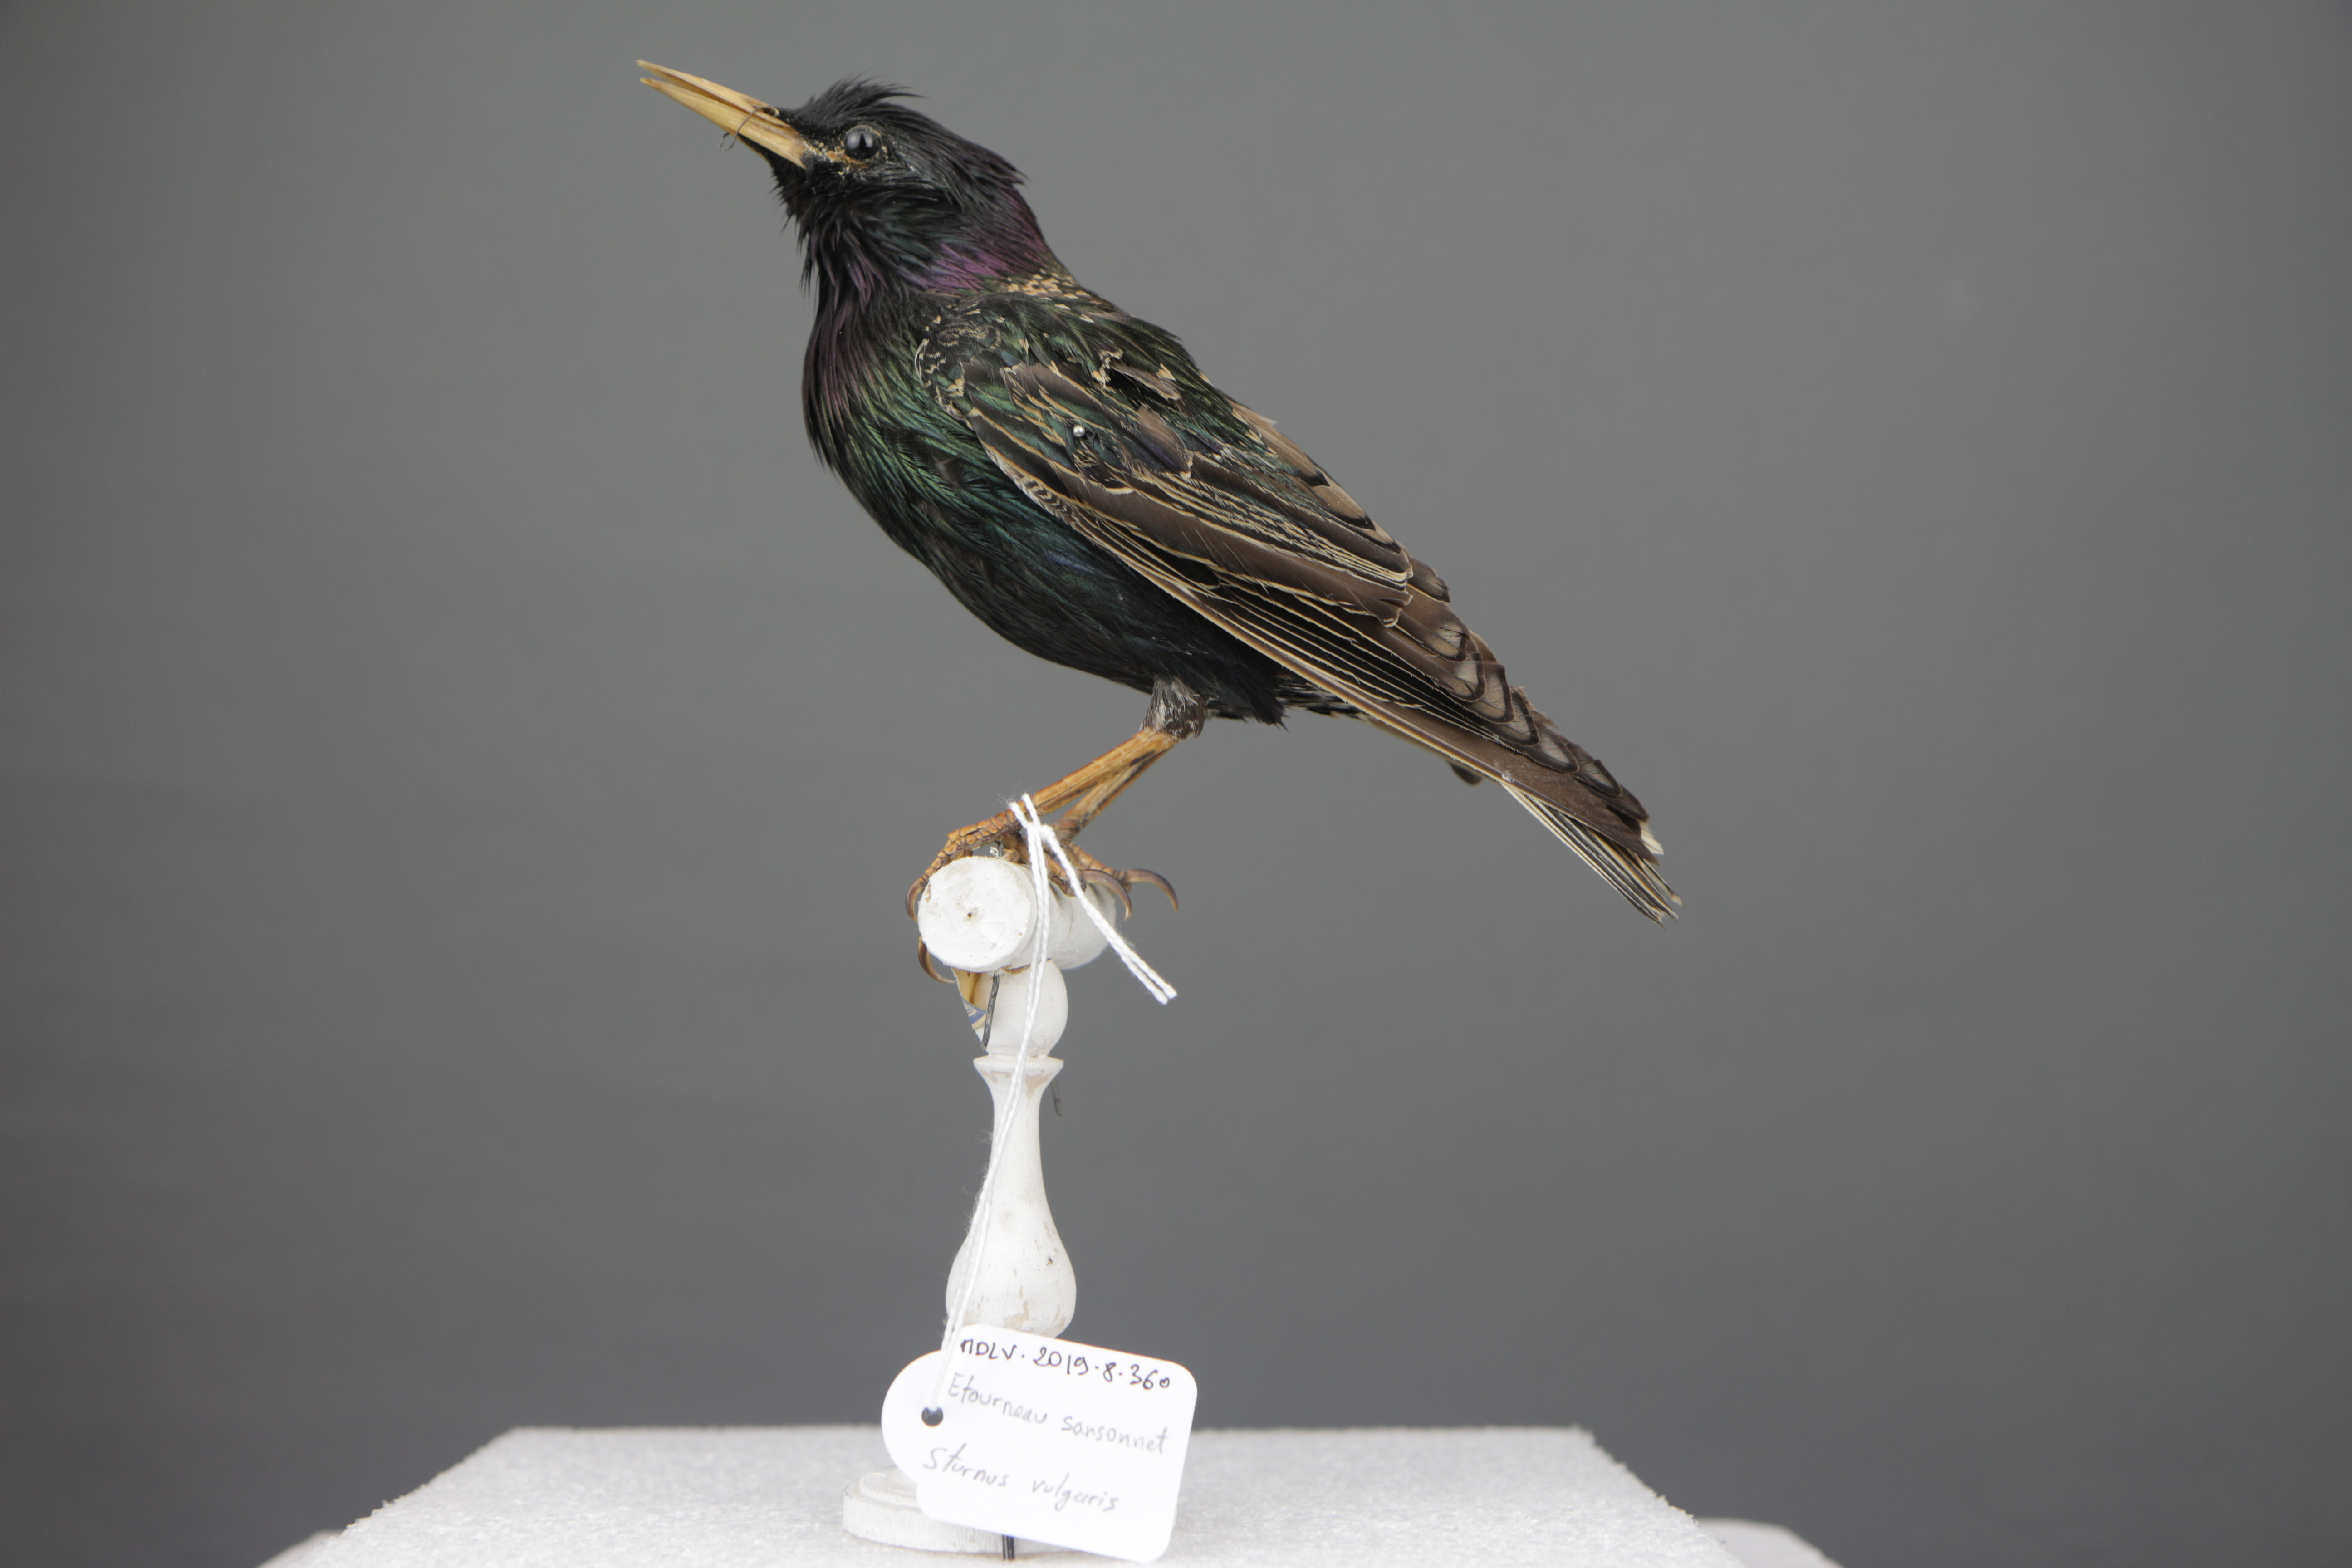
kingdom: Animalia
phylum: Chordata
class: Aves
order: Passeriformes
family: Sturnidae
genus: Sturnus
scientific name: Sturnus vulgaris
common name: Common starling
